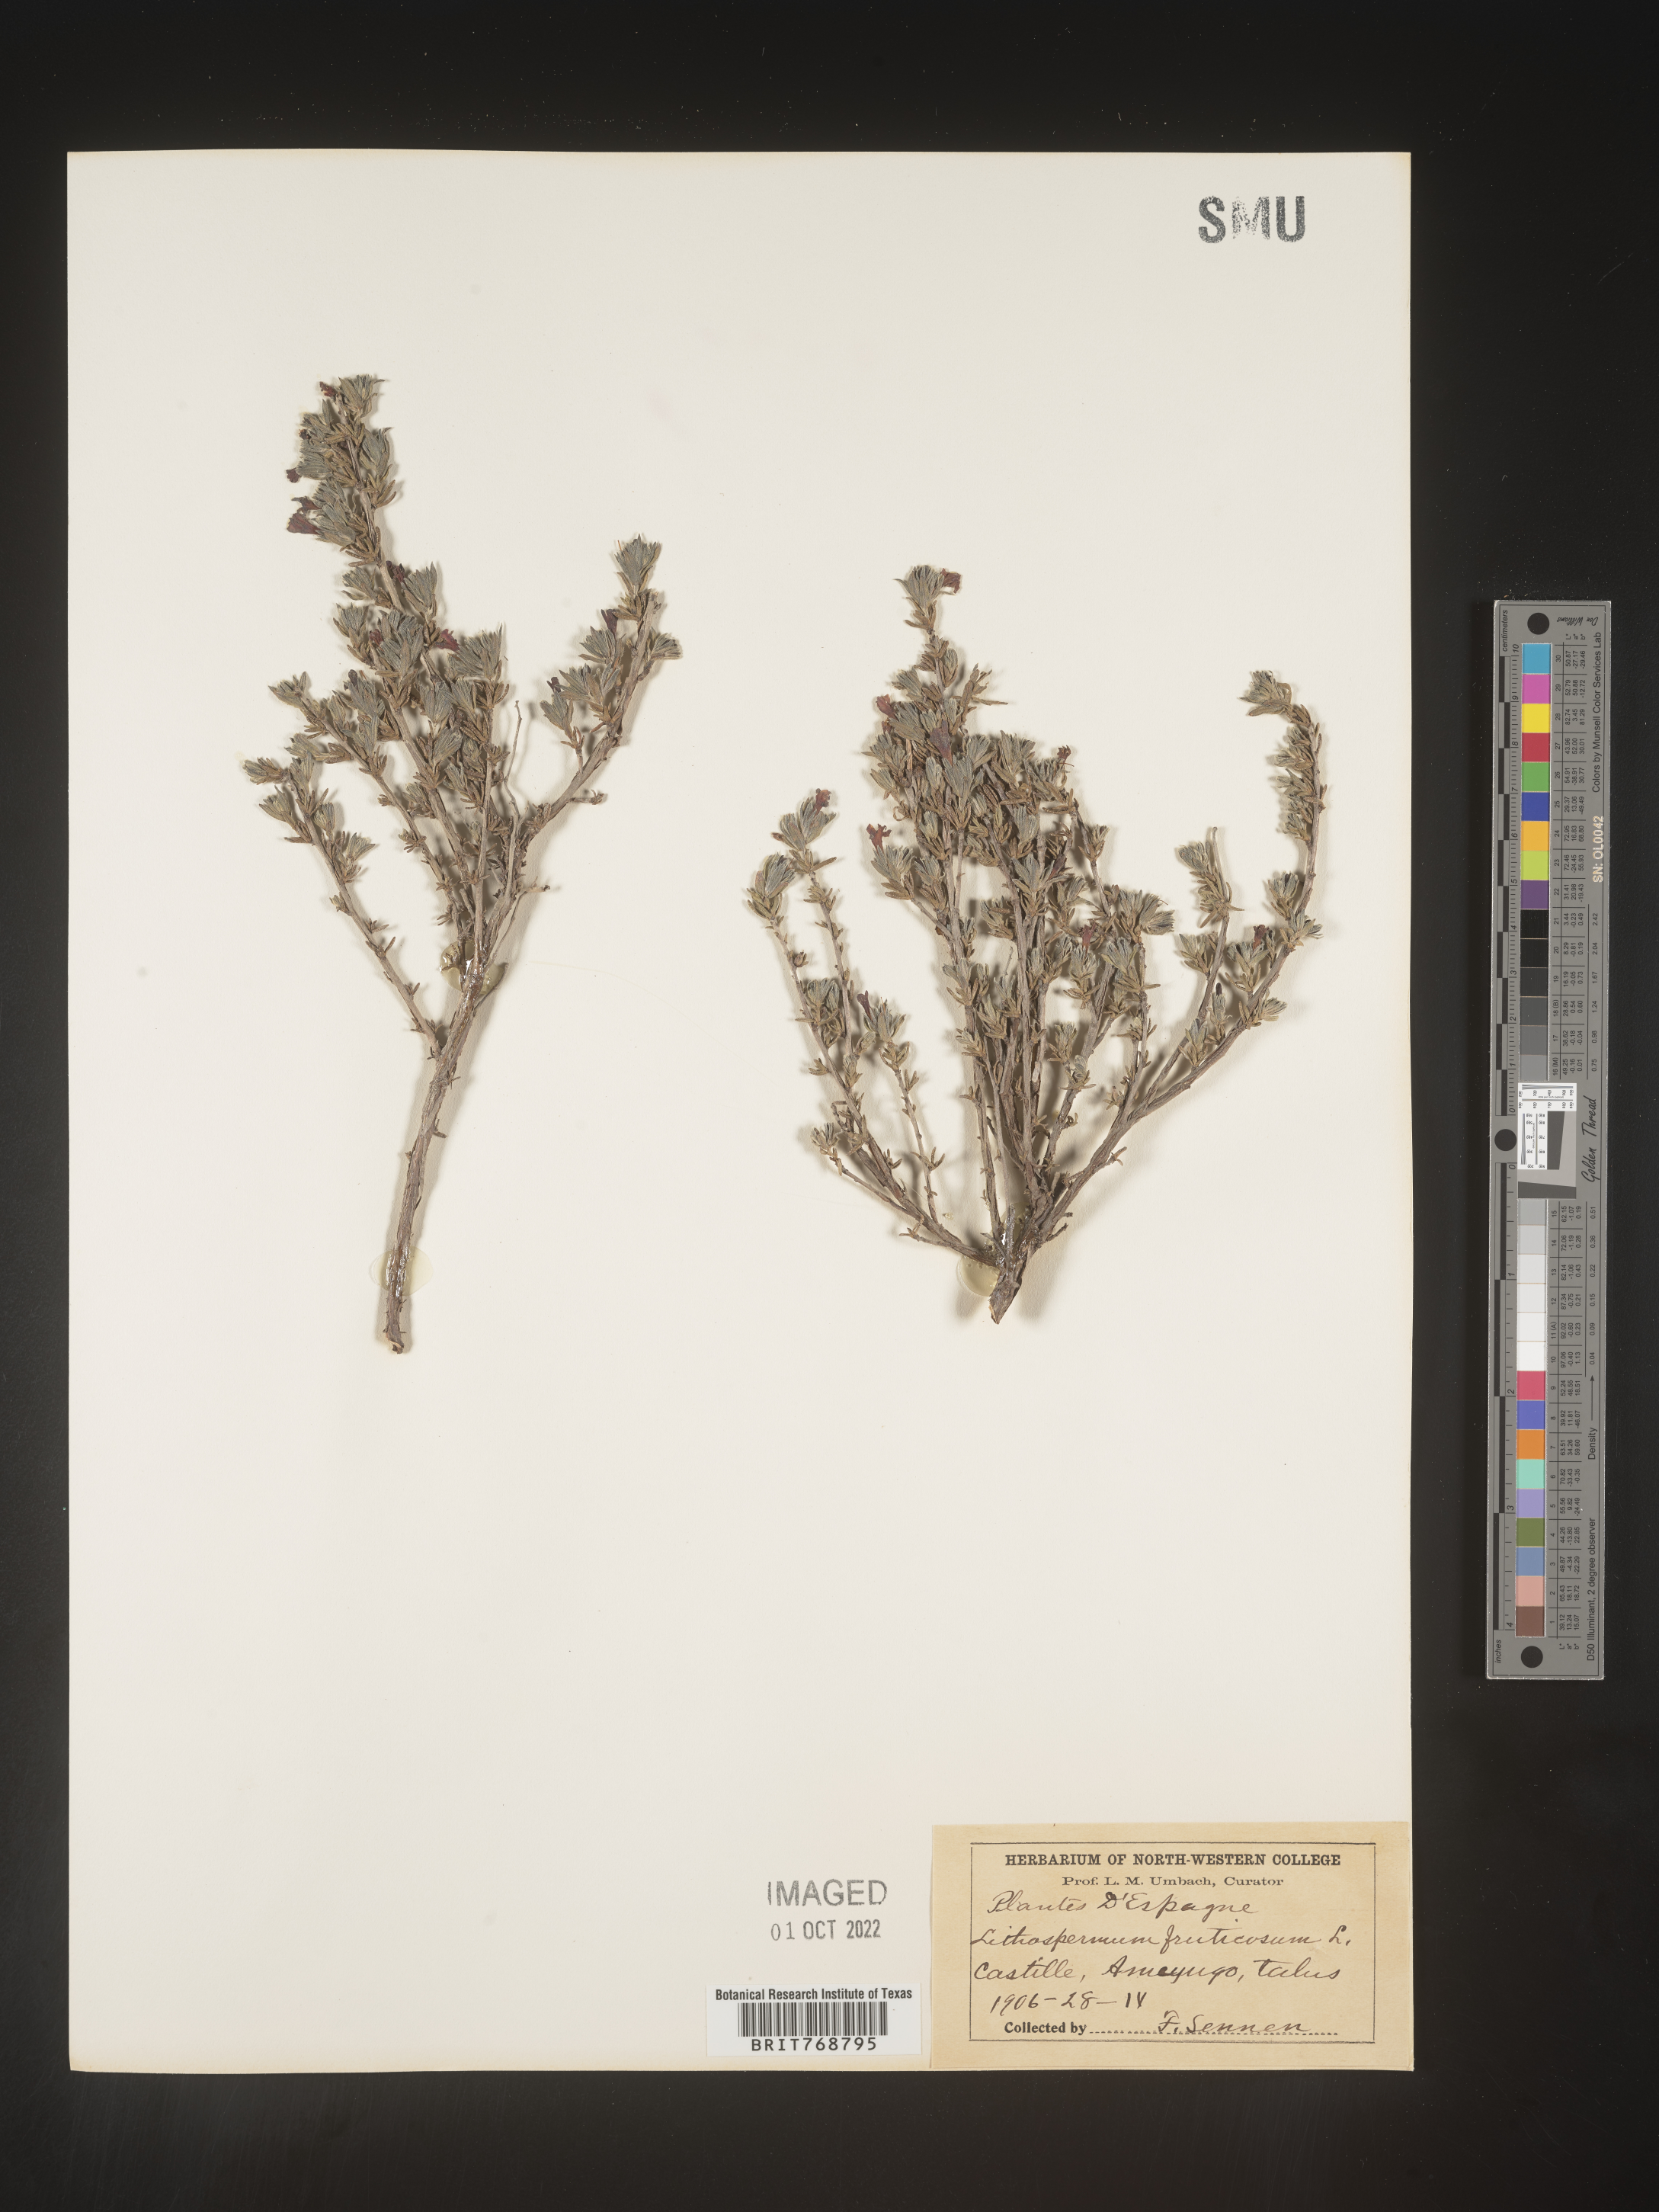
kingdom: Plantae
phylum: Tracheophyta
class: Magnoliopsida
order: Boraginales
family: Boraginaceae
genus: Lithospermum
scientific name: Lithospermum
